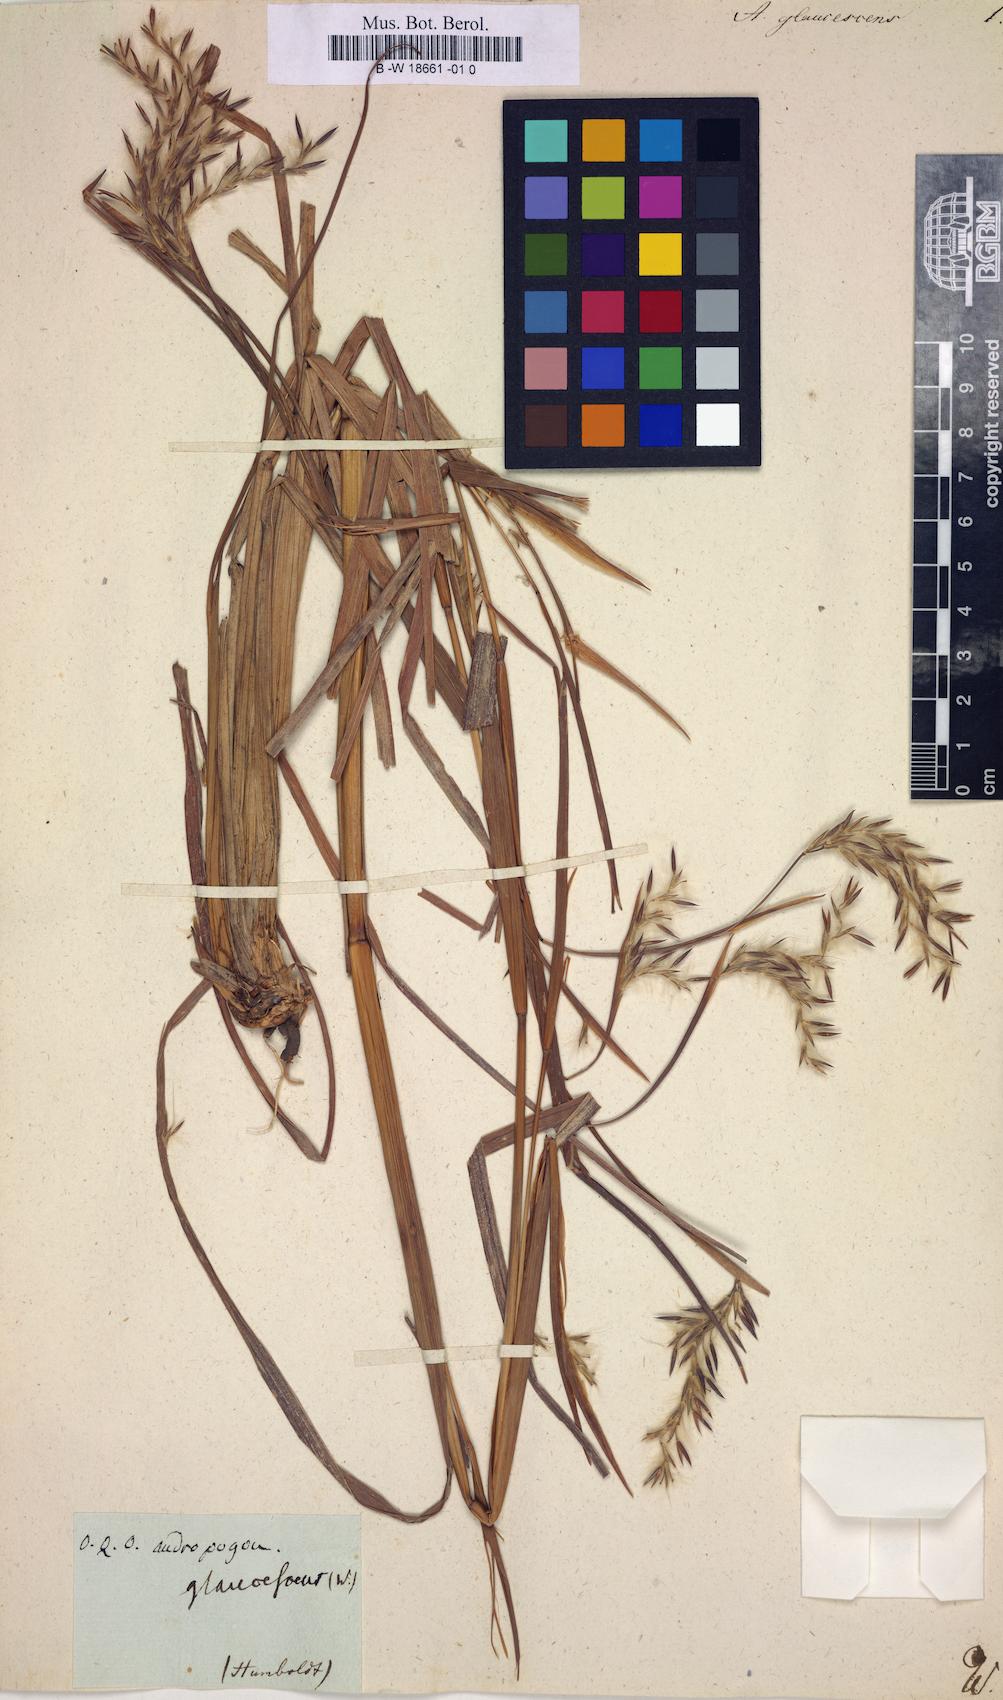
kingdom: Plantae
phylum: Tracheophyta
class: Liliopsida
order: Poales
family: Poaceae
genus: Andropogon
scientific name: Andropogon glaucescens
